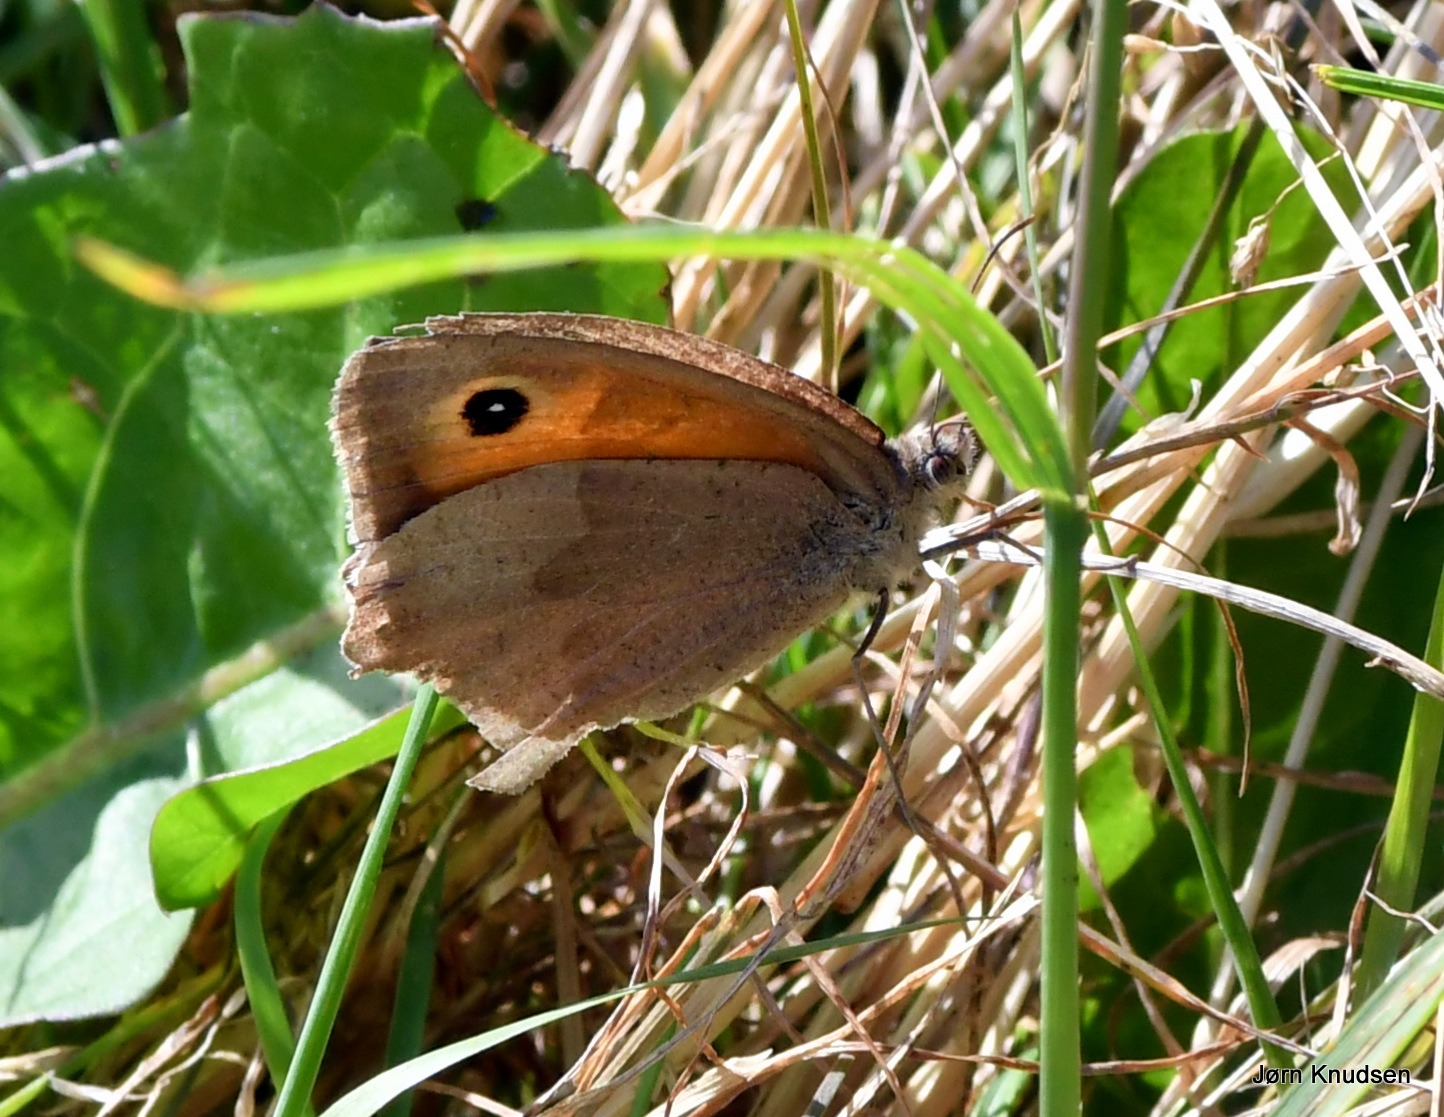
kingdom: Animalia
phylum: Arthropoda
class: Insecta
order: Lepidoptera
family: Nymphalidae
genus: Maniola
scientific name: Maniola jurtina
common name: Græsrandøje
